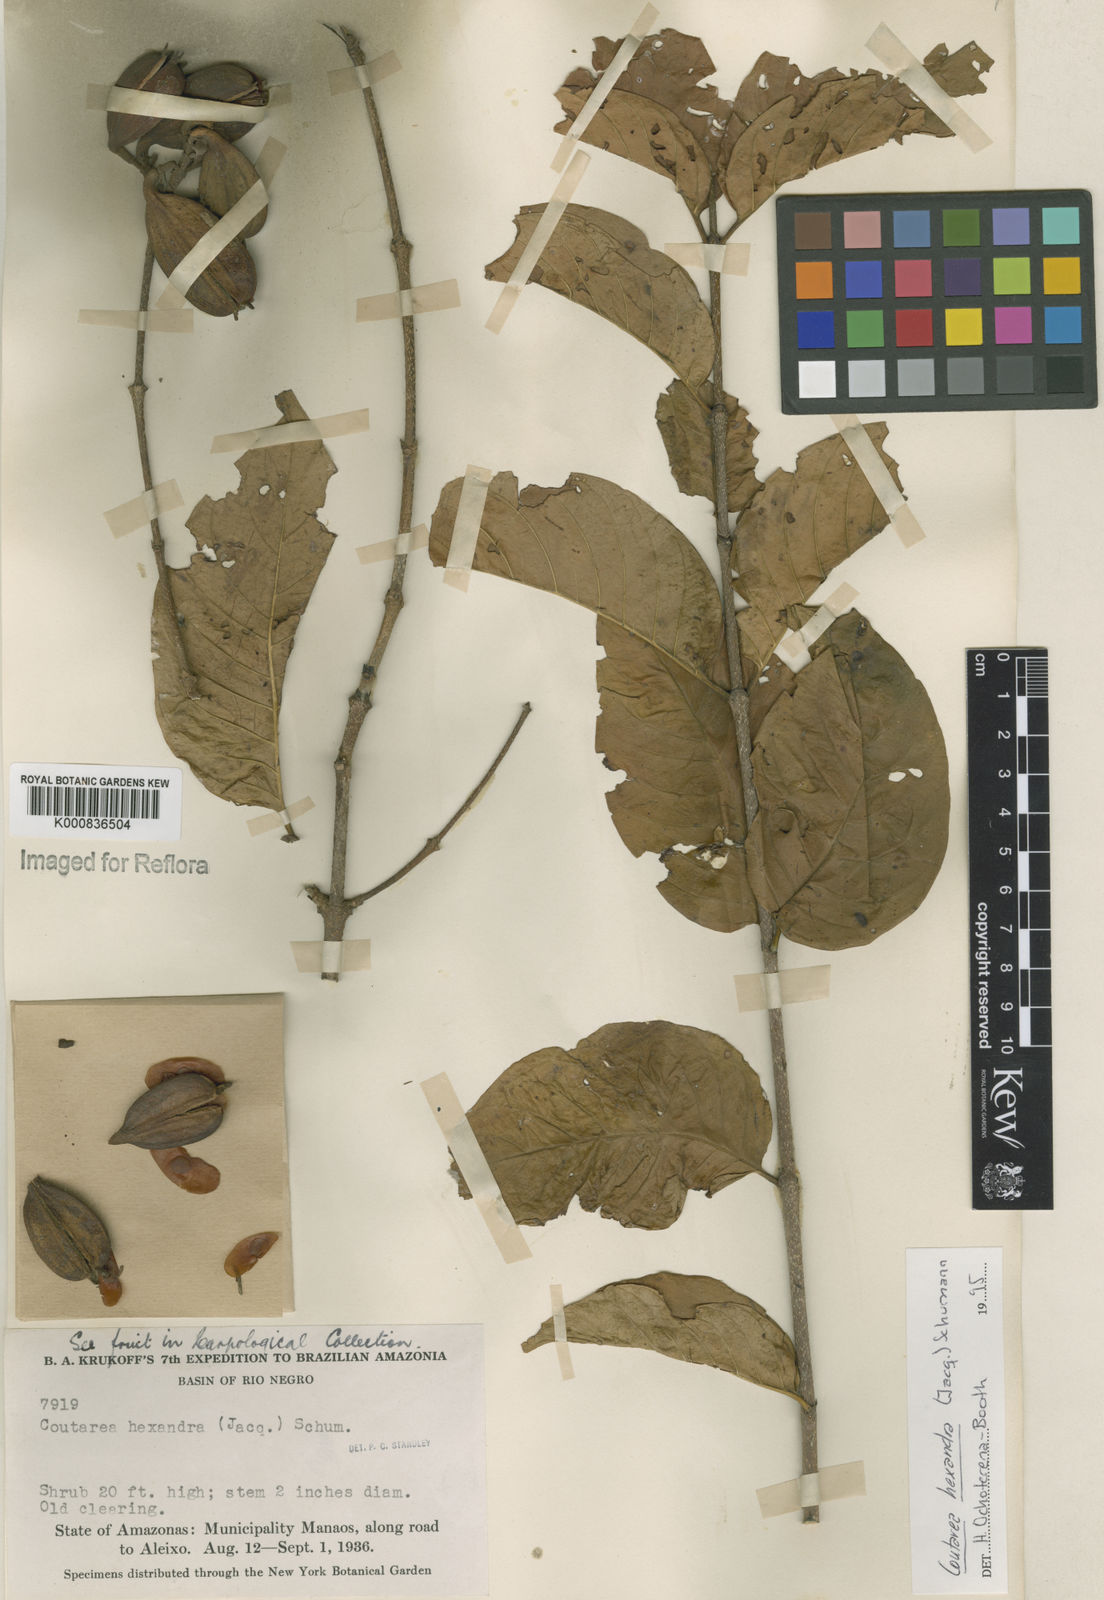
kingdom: Plantae
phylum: Tracheophyta
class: Magnoliopsida
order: Gentianales
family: Rubiaceae
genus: Coutarea
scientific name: Coutarea hexandra
